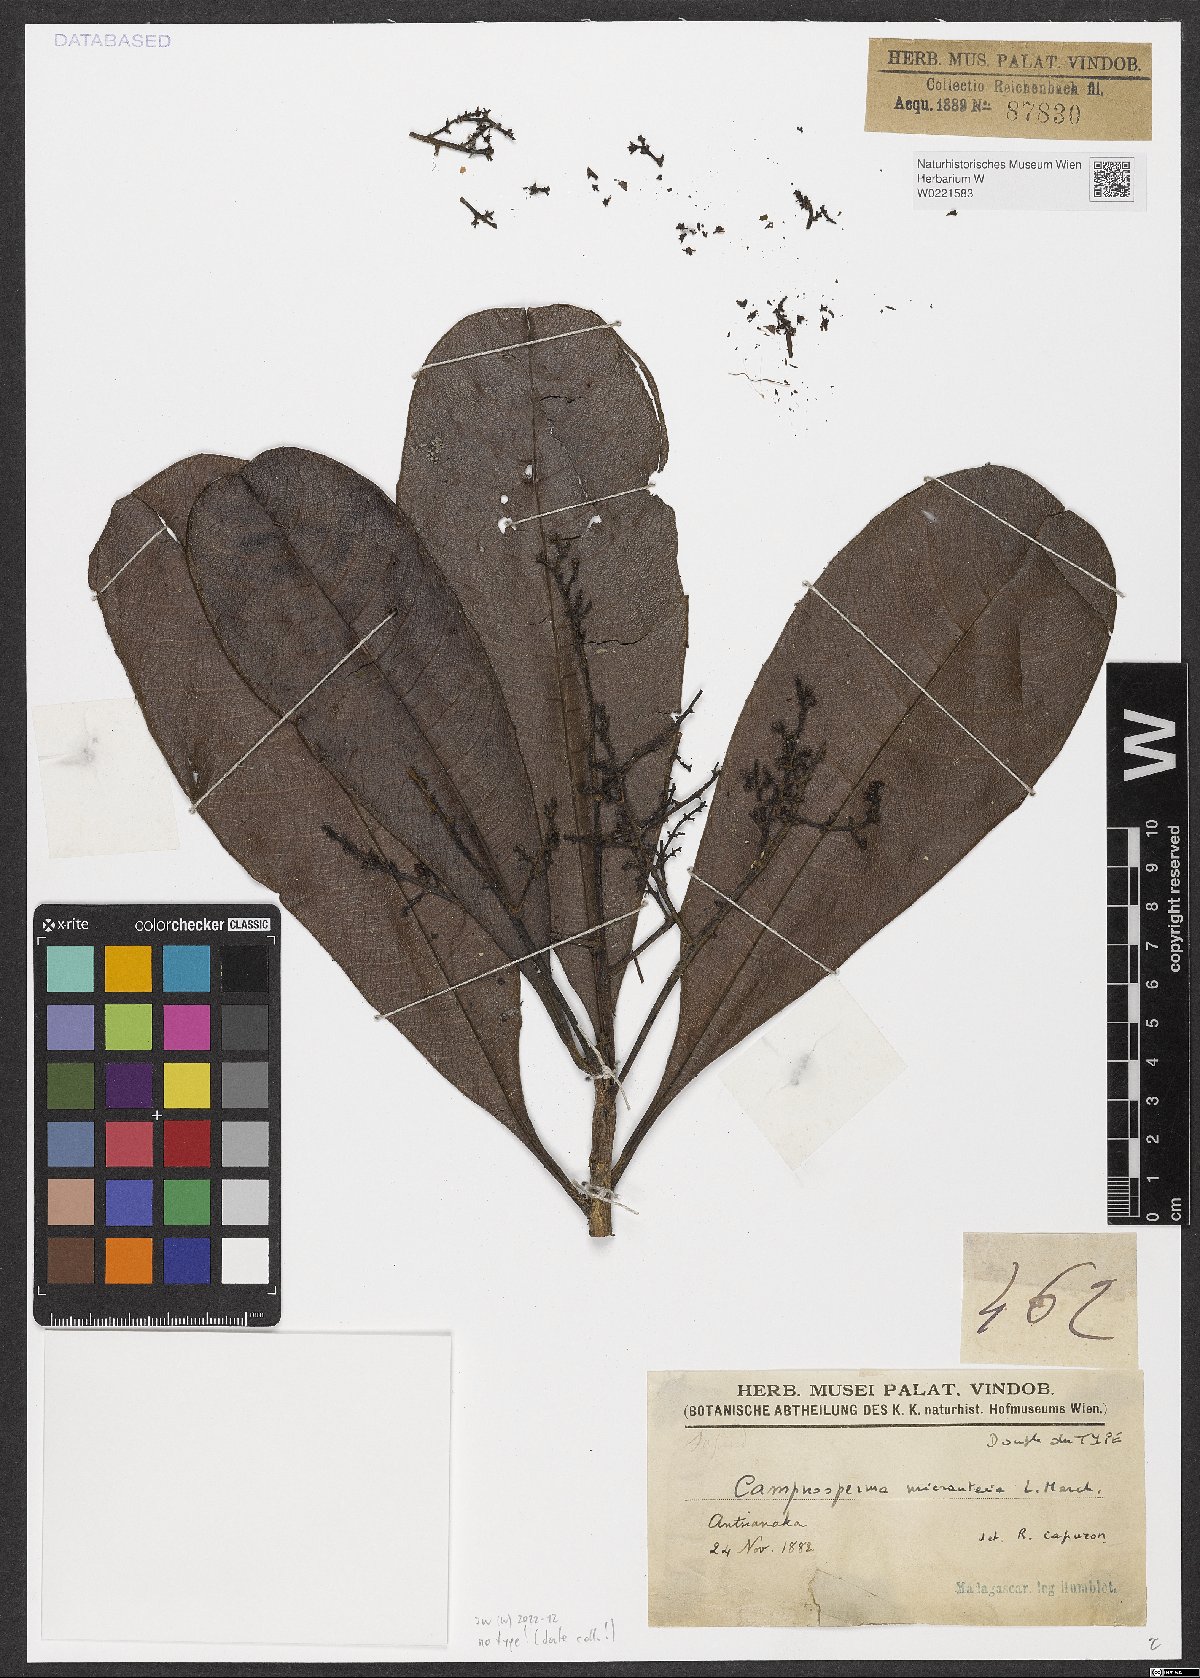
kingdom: Plantae
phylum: Tracheophyta
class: Magnoliopsida
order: Sapindales
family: Anacardiaceae
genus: Campnosperma
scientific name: Campnosperma micranteium
